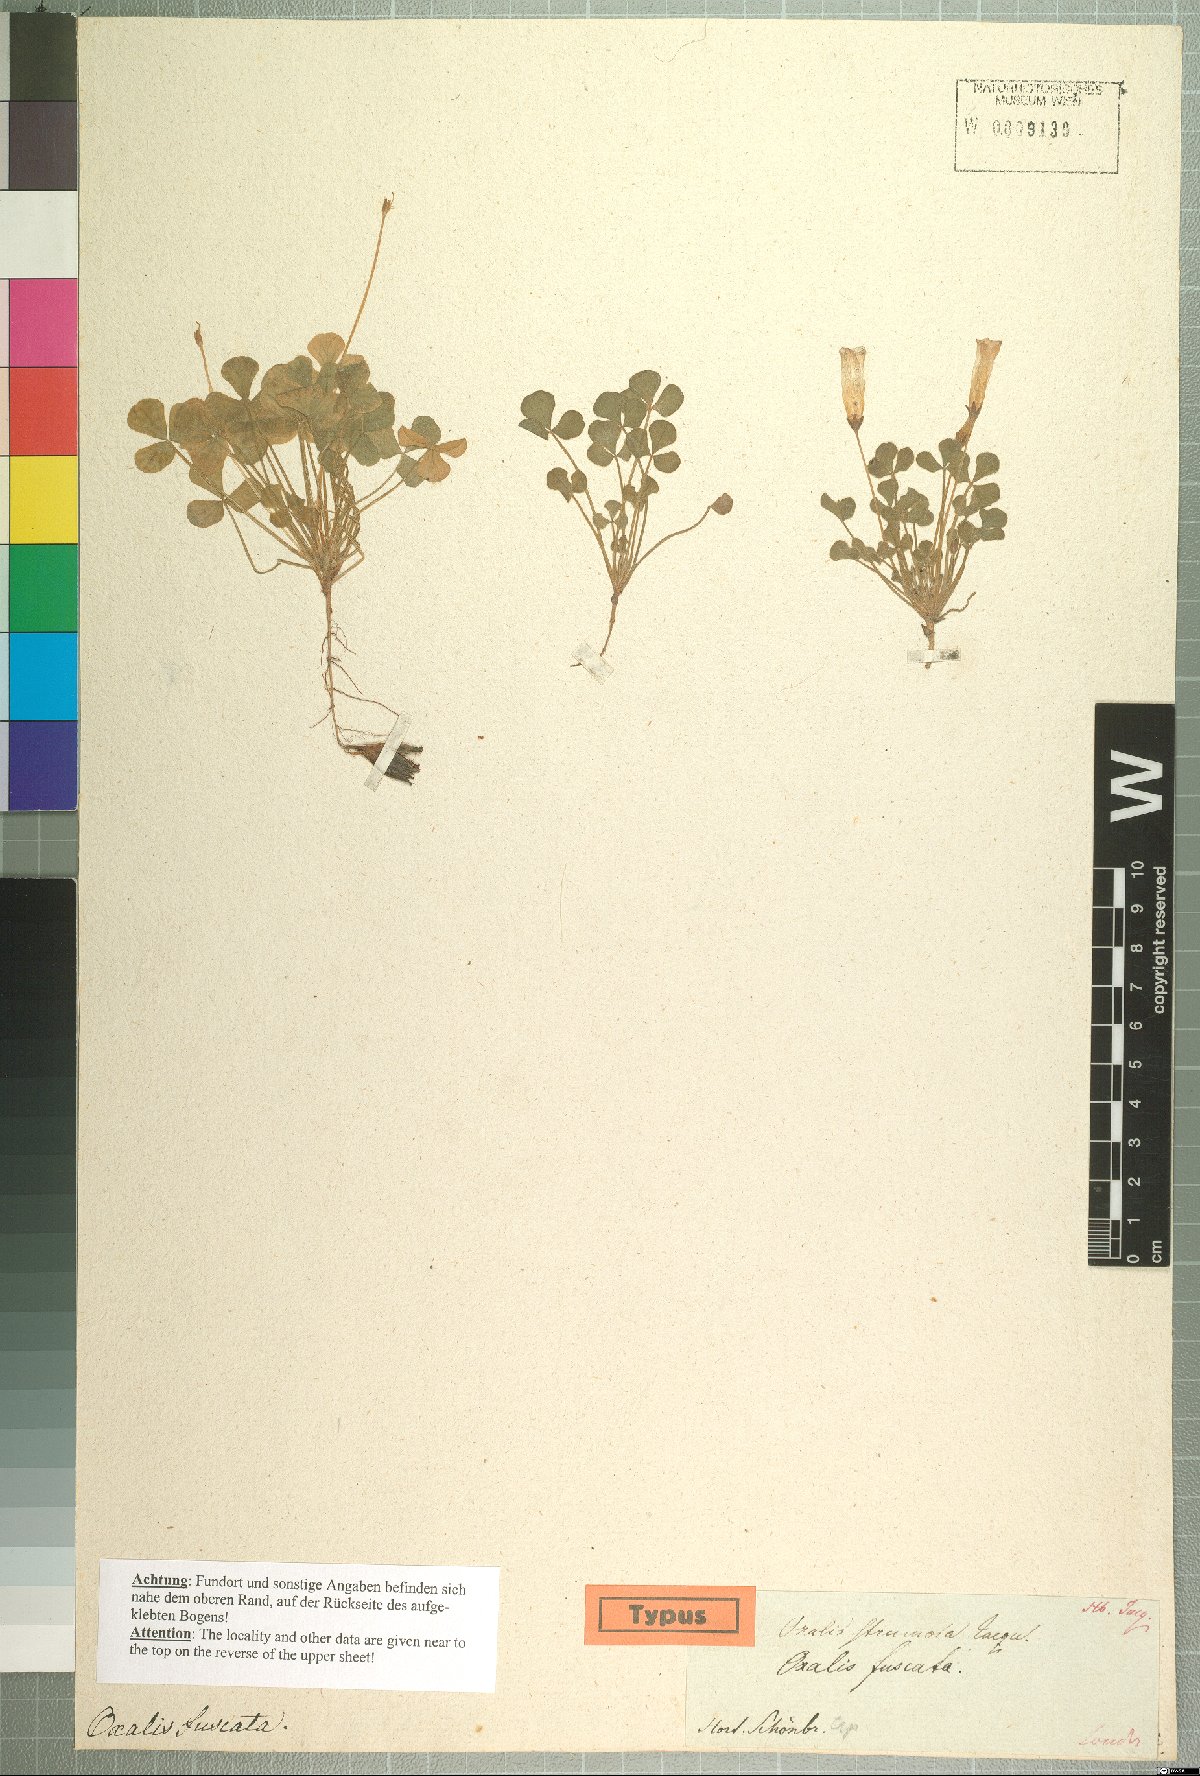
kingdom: Plantae
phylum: Tracheophyta
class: Magnoliopsida
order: Oxalidales
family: Oxalidaceae
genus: Oxalis
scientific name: Oxalis ambigua
